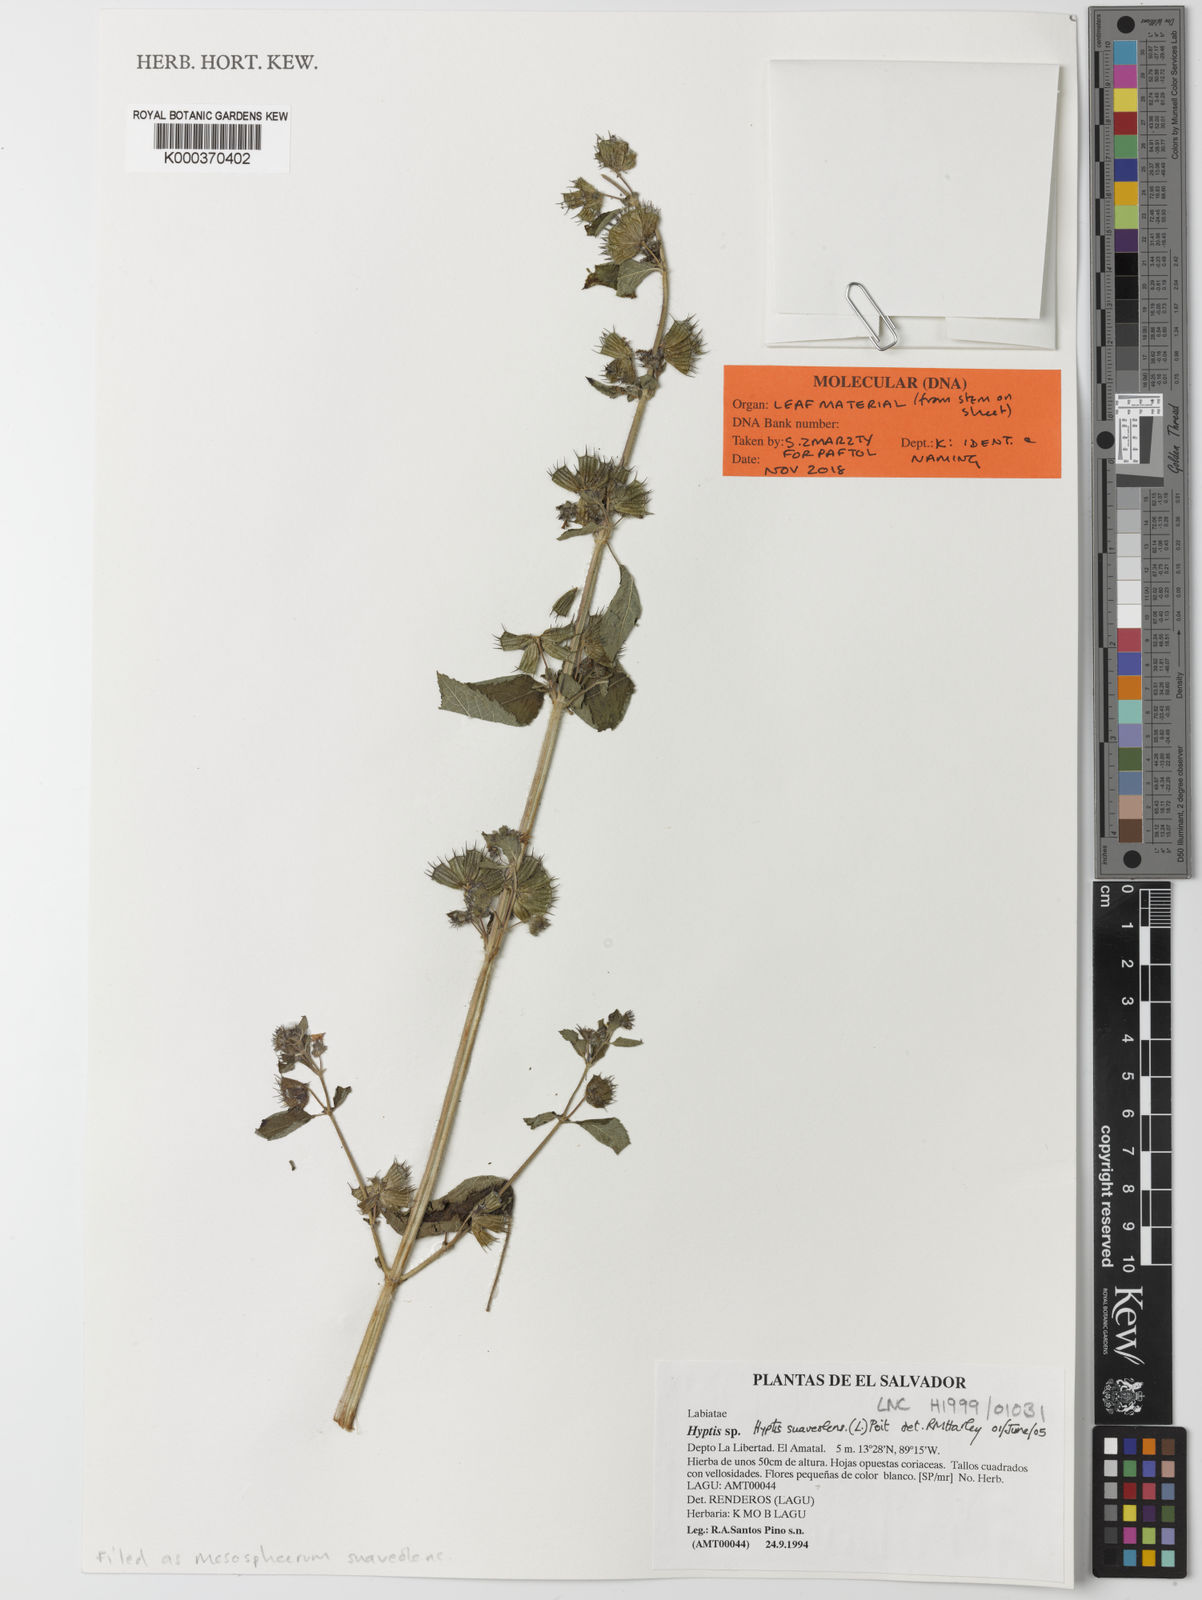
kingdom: Plantae
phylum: Tracheophyta
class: Magnoliopsida
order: Lamiales
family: Lamiaceae
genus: Mesosphaerum
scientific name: Mesosphaerum suaveolens
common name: Pignut
